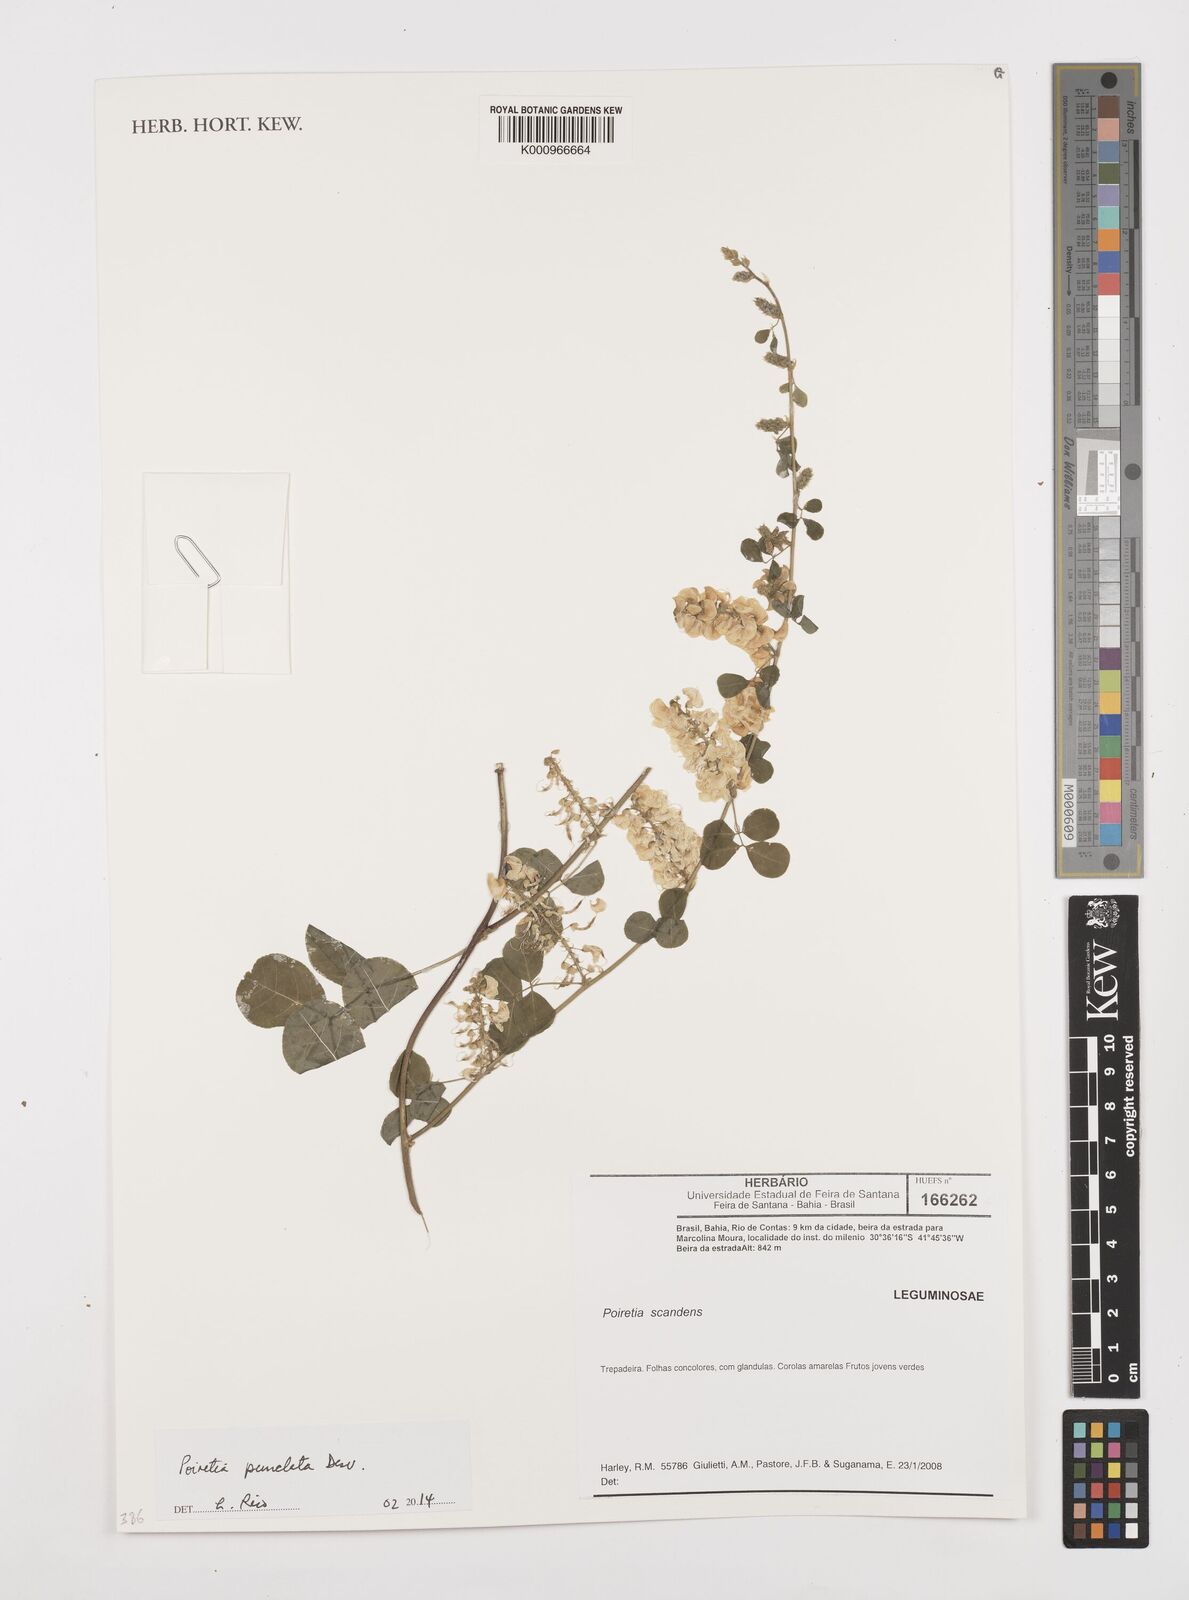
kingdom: Plantae
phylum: Tracheophyta
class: Magnoliopsida
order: Fabales
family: Fabaceae
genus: Poiretia
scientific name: Poiretia punctata
